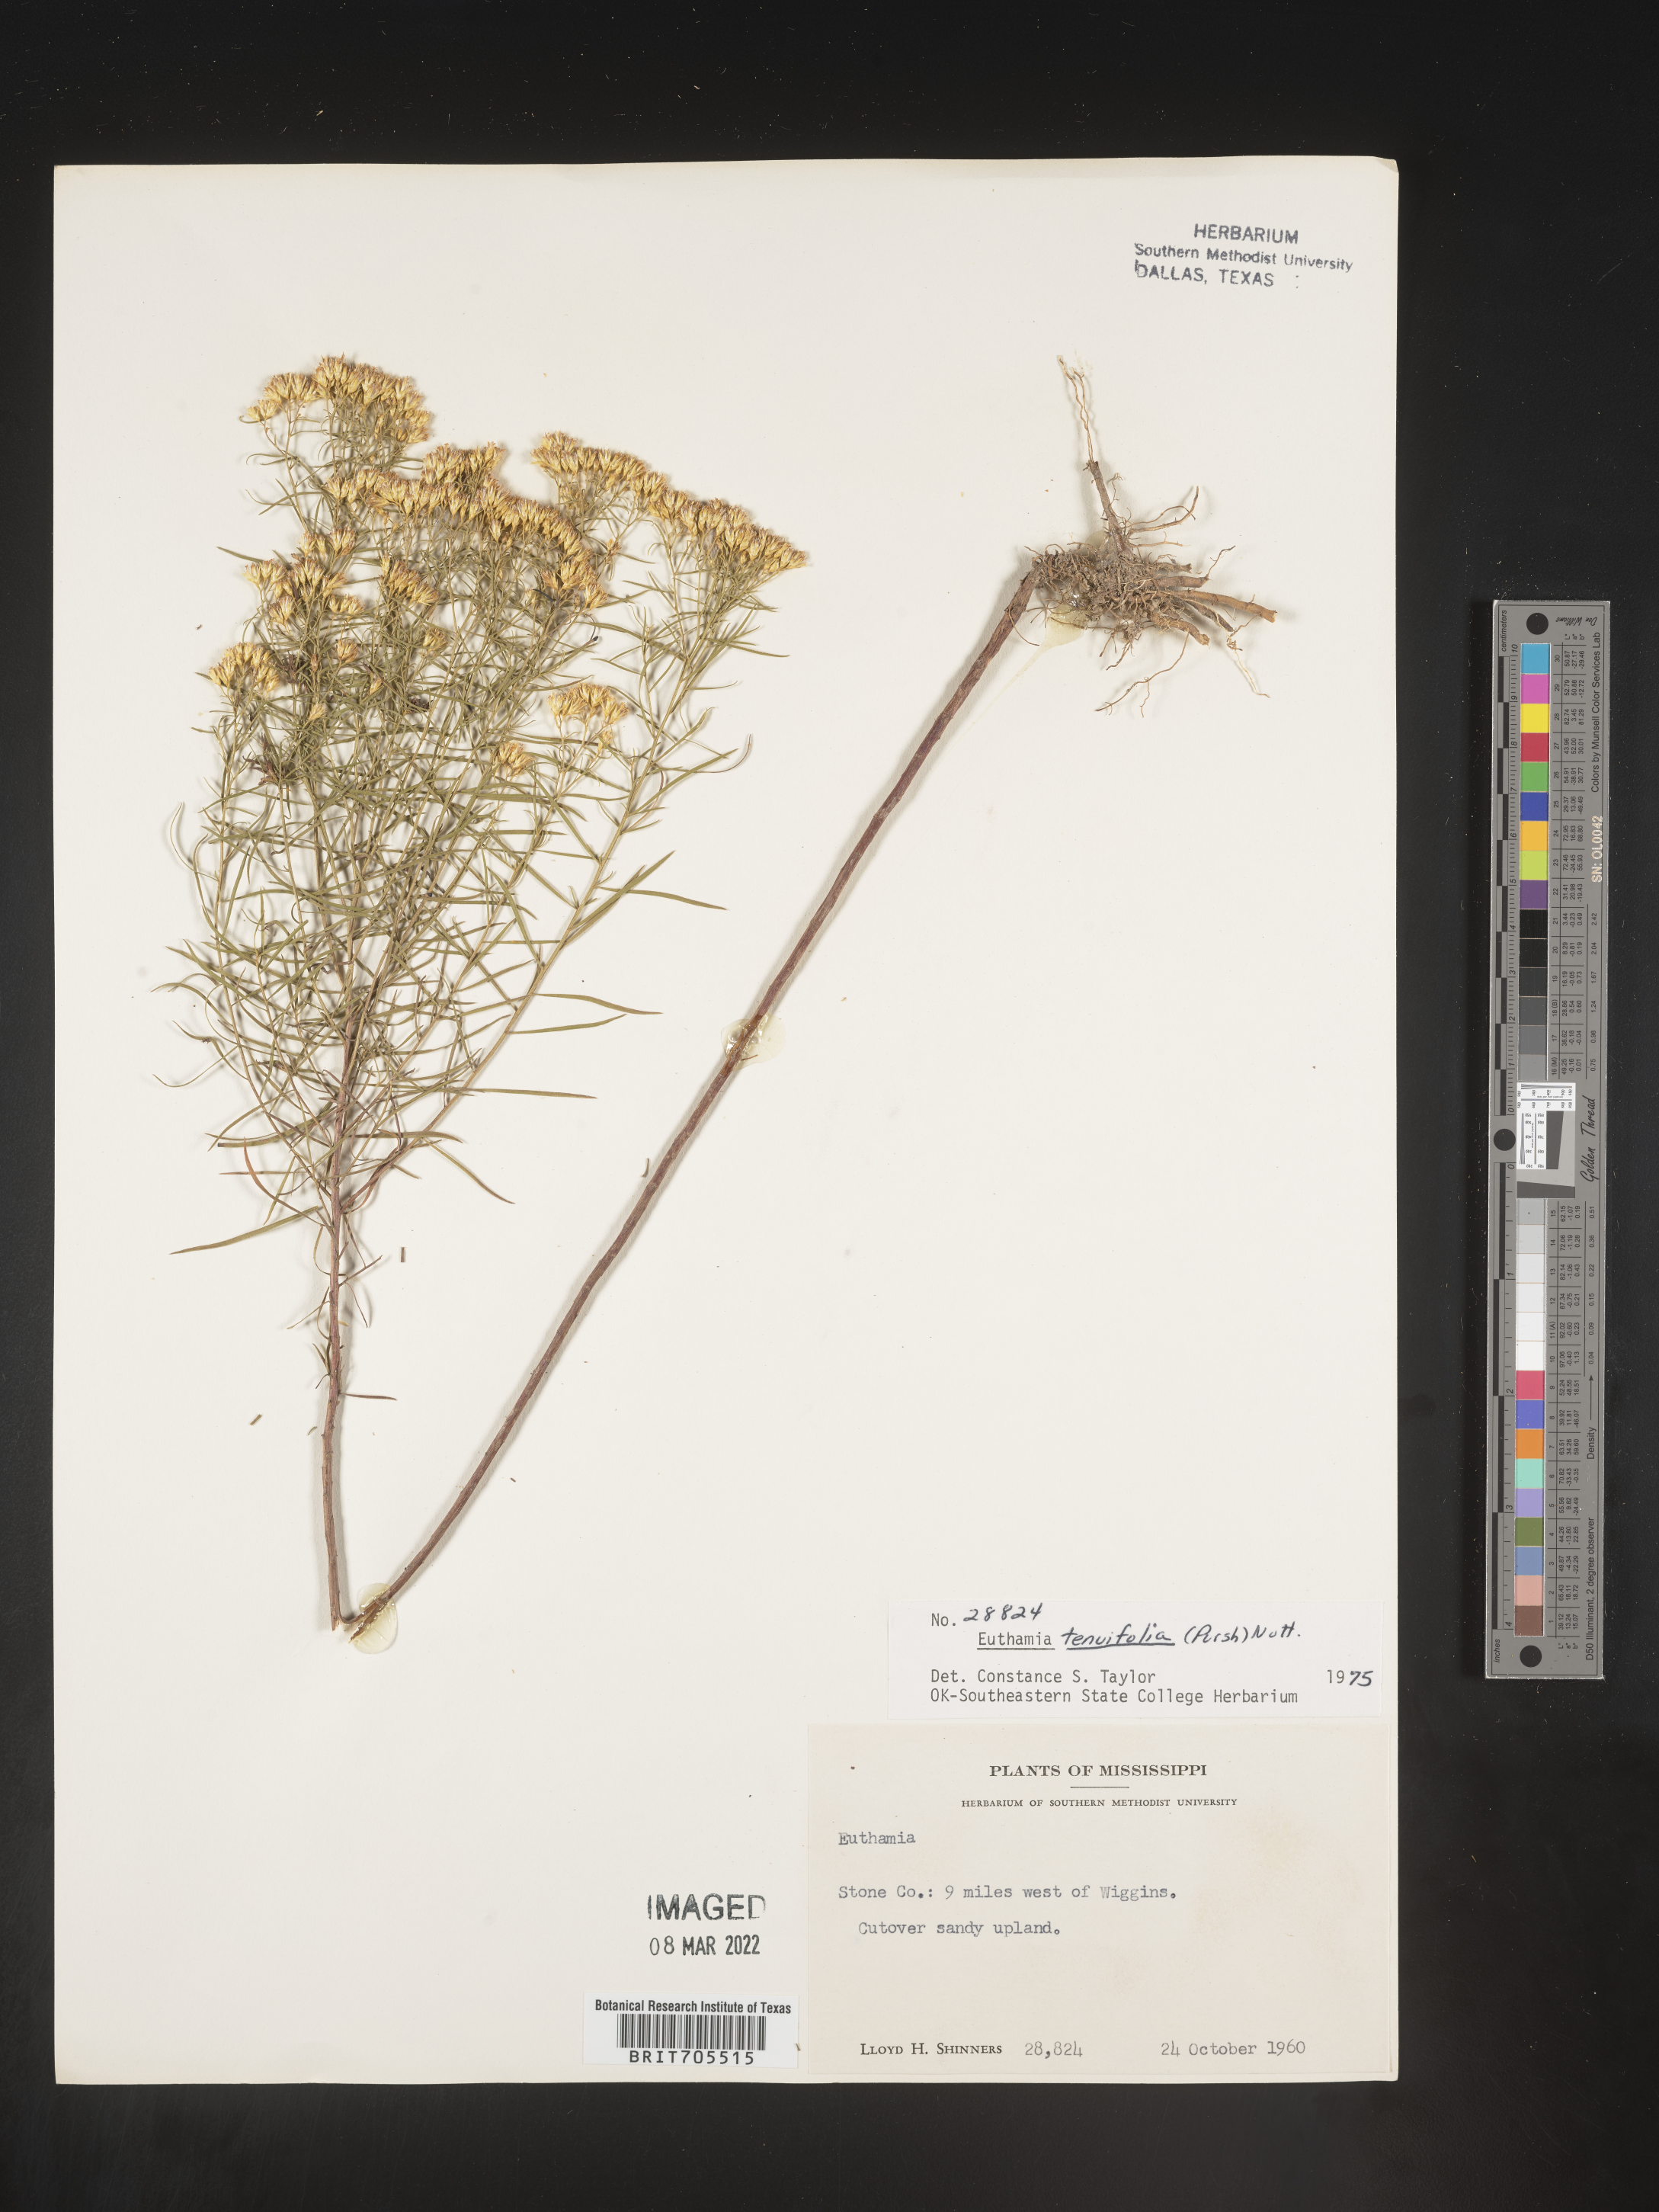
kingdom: Plantae
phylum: Tracheophyta
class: Magnoliopsida
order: Asterales
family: Asteraceae
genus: Euthamia
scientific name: Euthamia caroliniana
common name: Coastal plain goldentop
